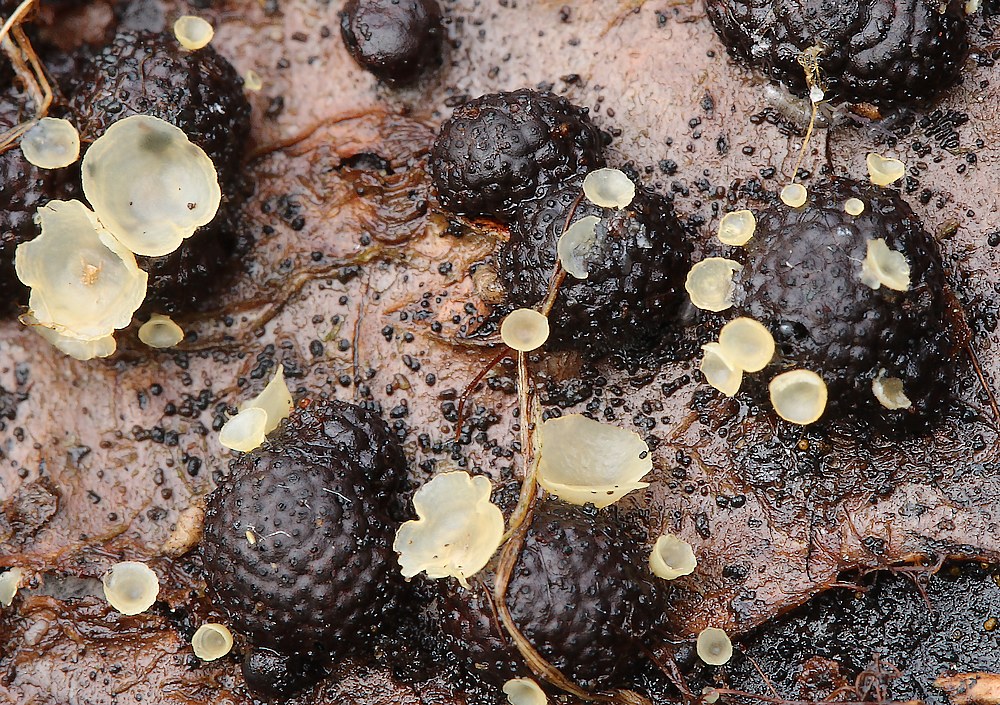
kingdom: Fungi
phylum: Ascomycota
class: Orbiliomycetes
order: Orbiliales
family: Orbiliaceae
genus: Hyalorbilia
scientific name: Hyalorbilia
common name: voksskive
